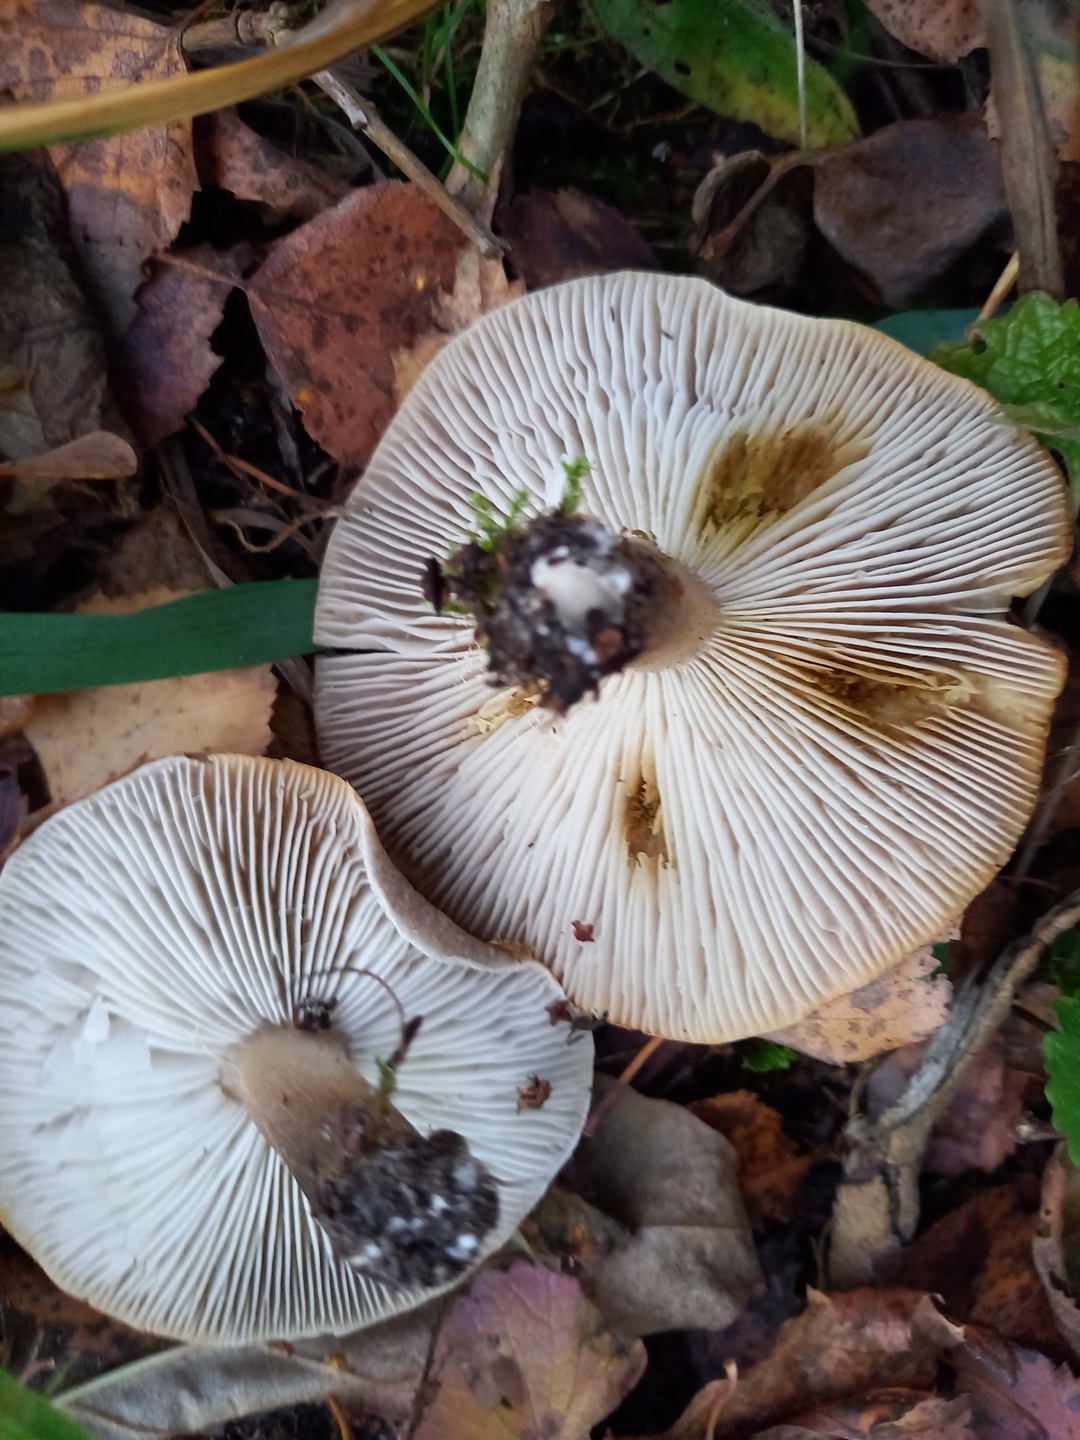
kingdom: Fungi
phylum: Basidiomycota
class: Agaricomycetes
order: Agaricales
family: Tricholomataceae
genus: Tricholoma
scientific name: Tricholoma scalpturatum
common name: gulplettet ridderhat
